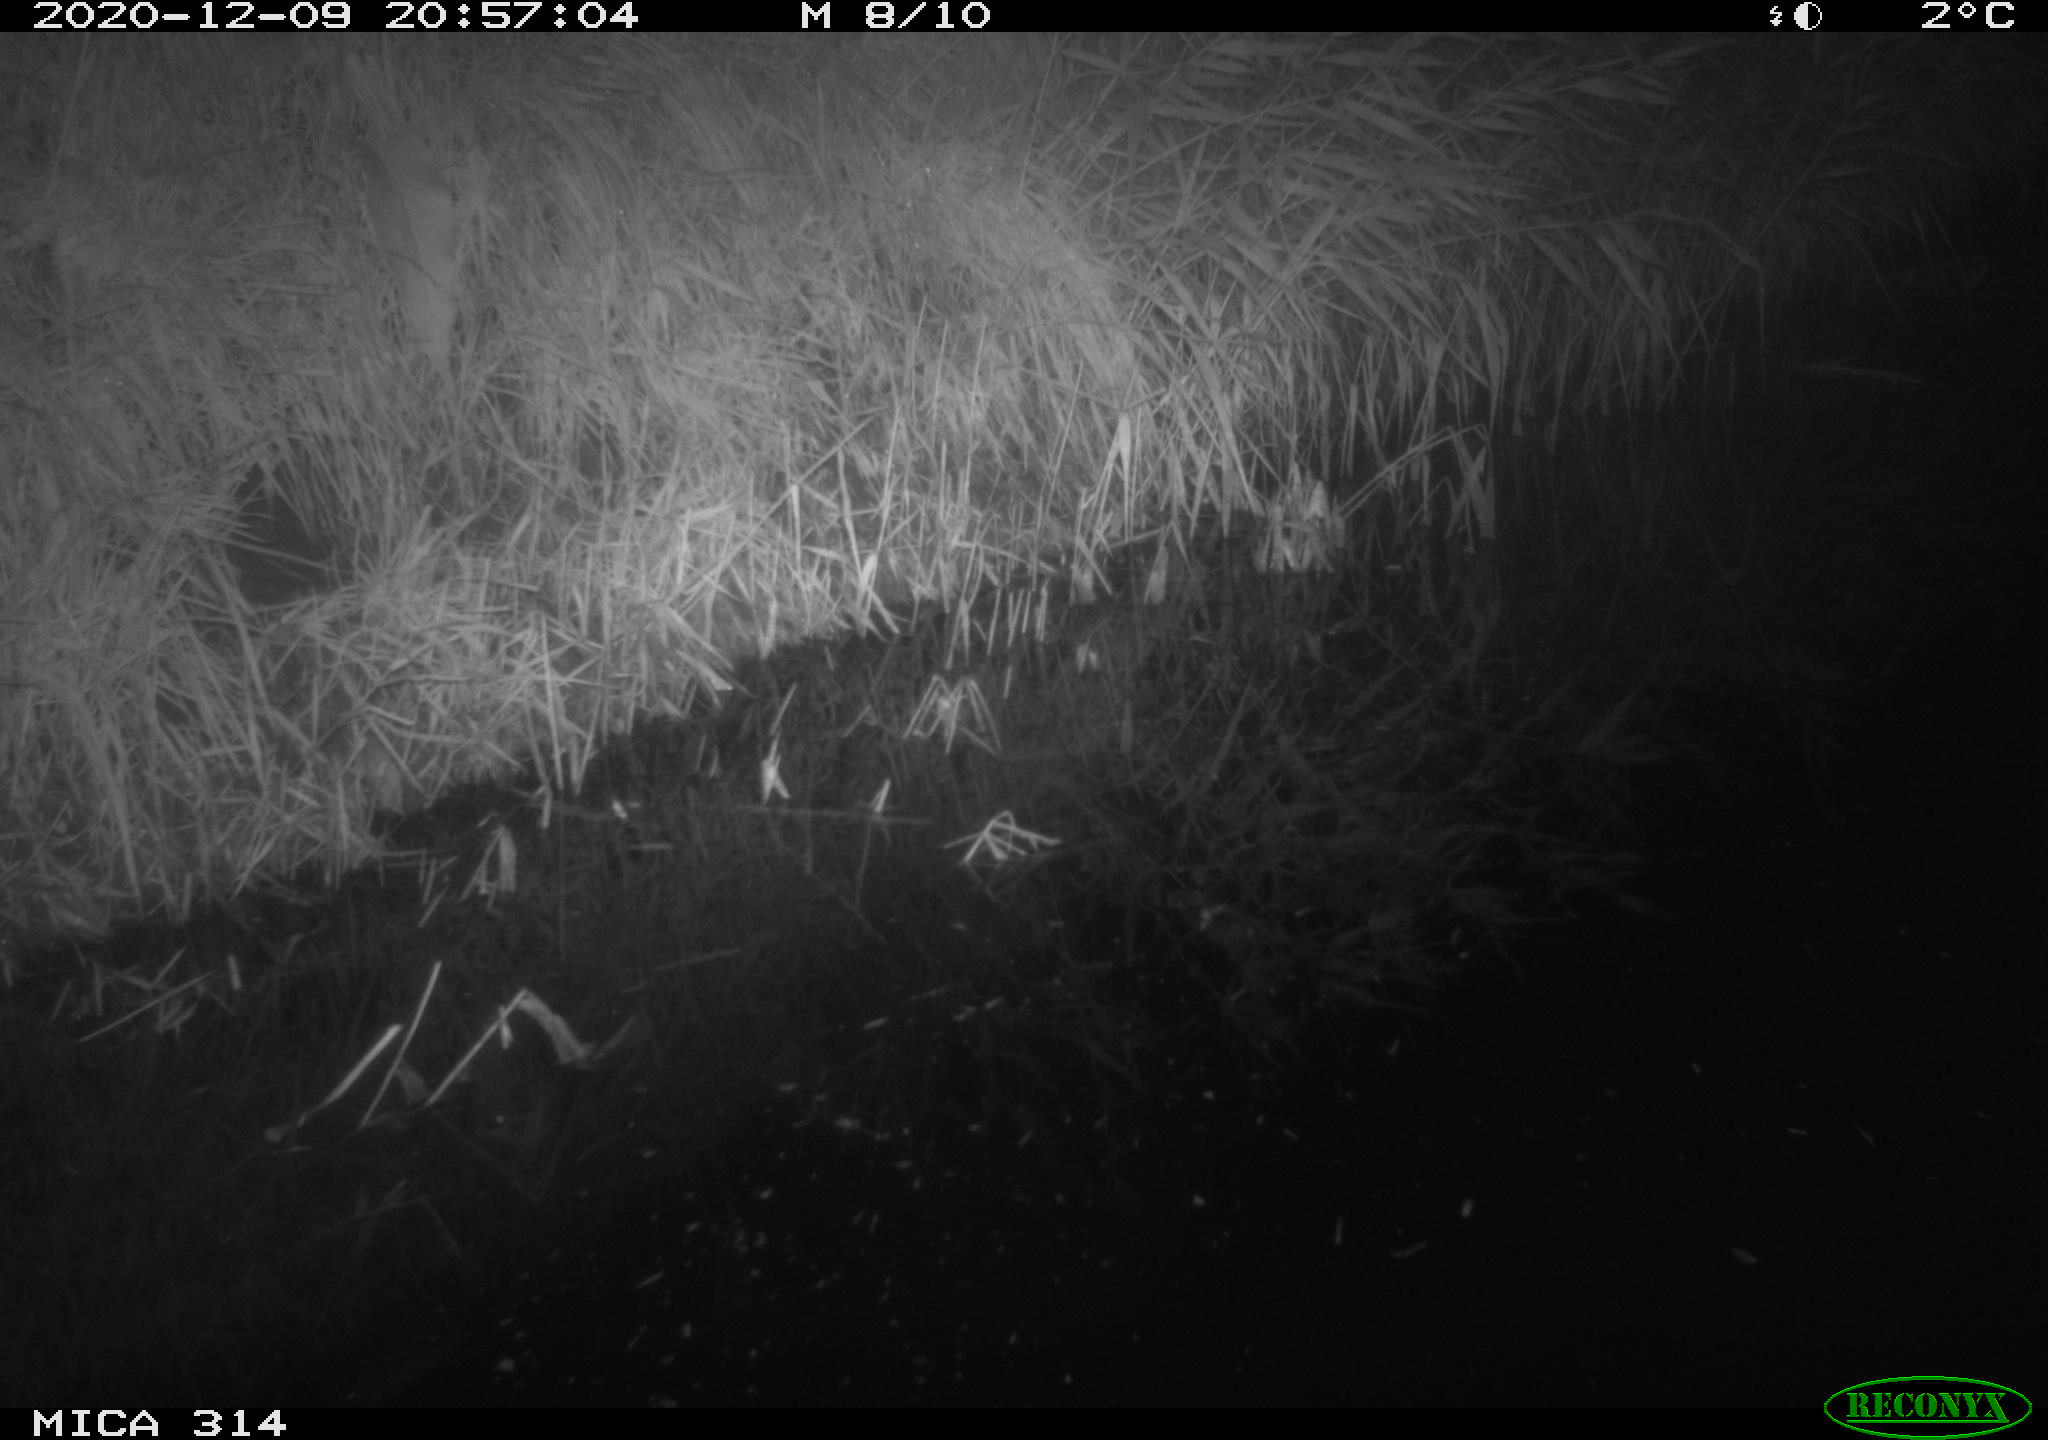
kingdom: Animalia
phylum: Chordata
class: Mammalia
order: Rodentia
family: Muridae
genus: Rattus
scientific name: Rattus norvegicus
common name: Brown rat
